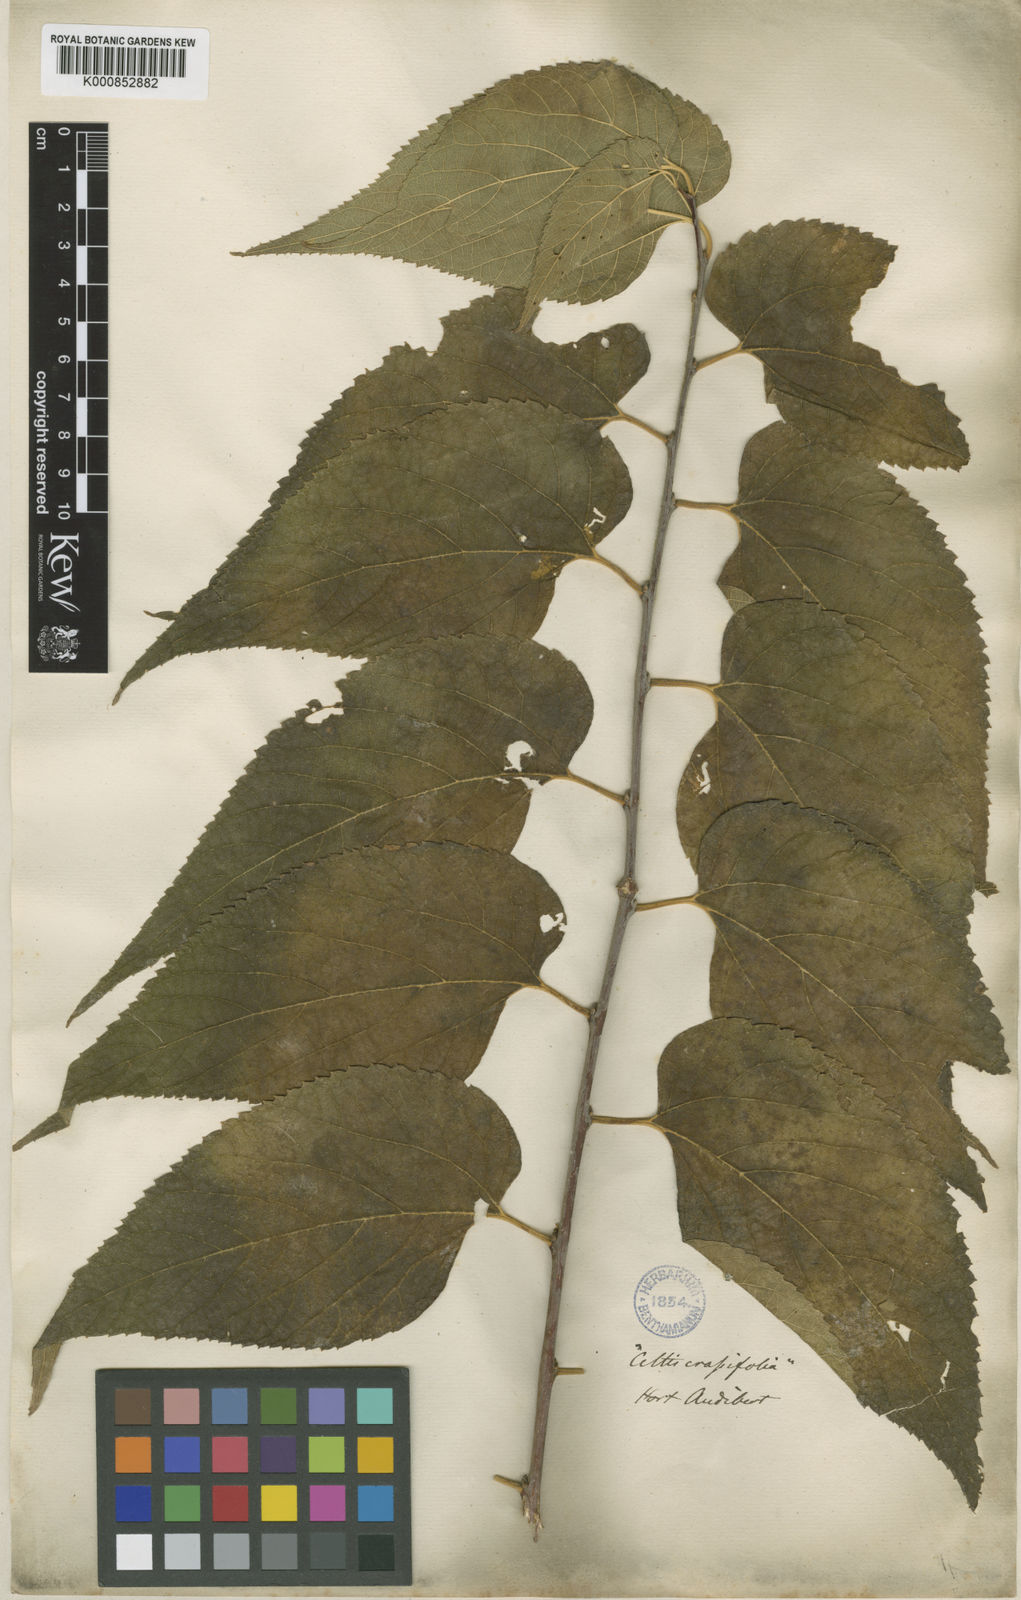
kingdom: Plantae
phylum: Tracheophyta
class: Magnoliopsida
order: Rosales
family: Cannabaceae
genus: Celtis
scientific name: Celtis occidentalis
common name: Common hackberry
